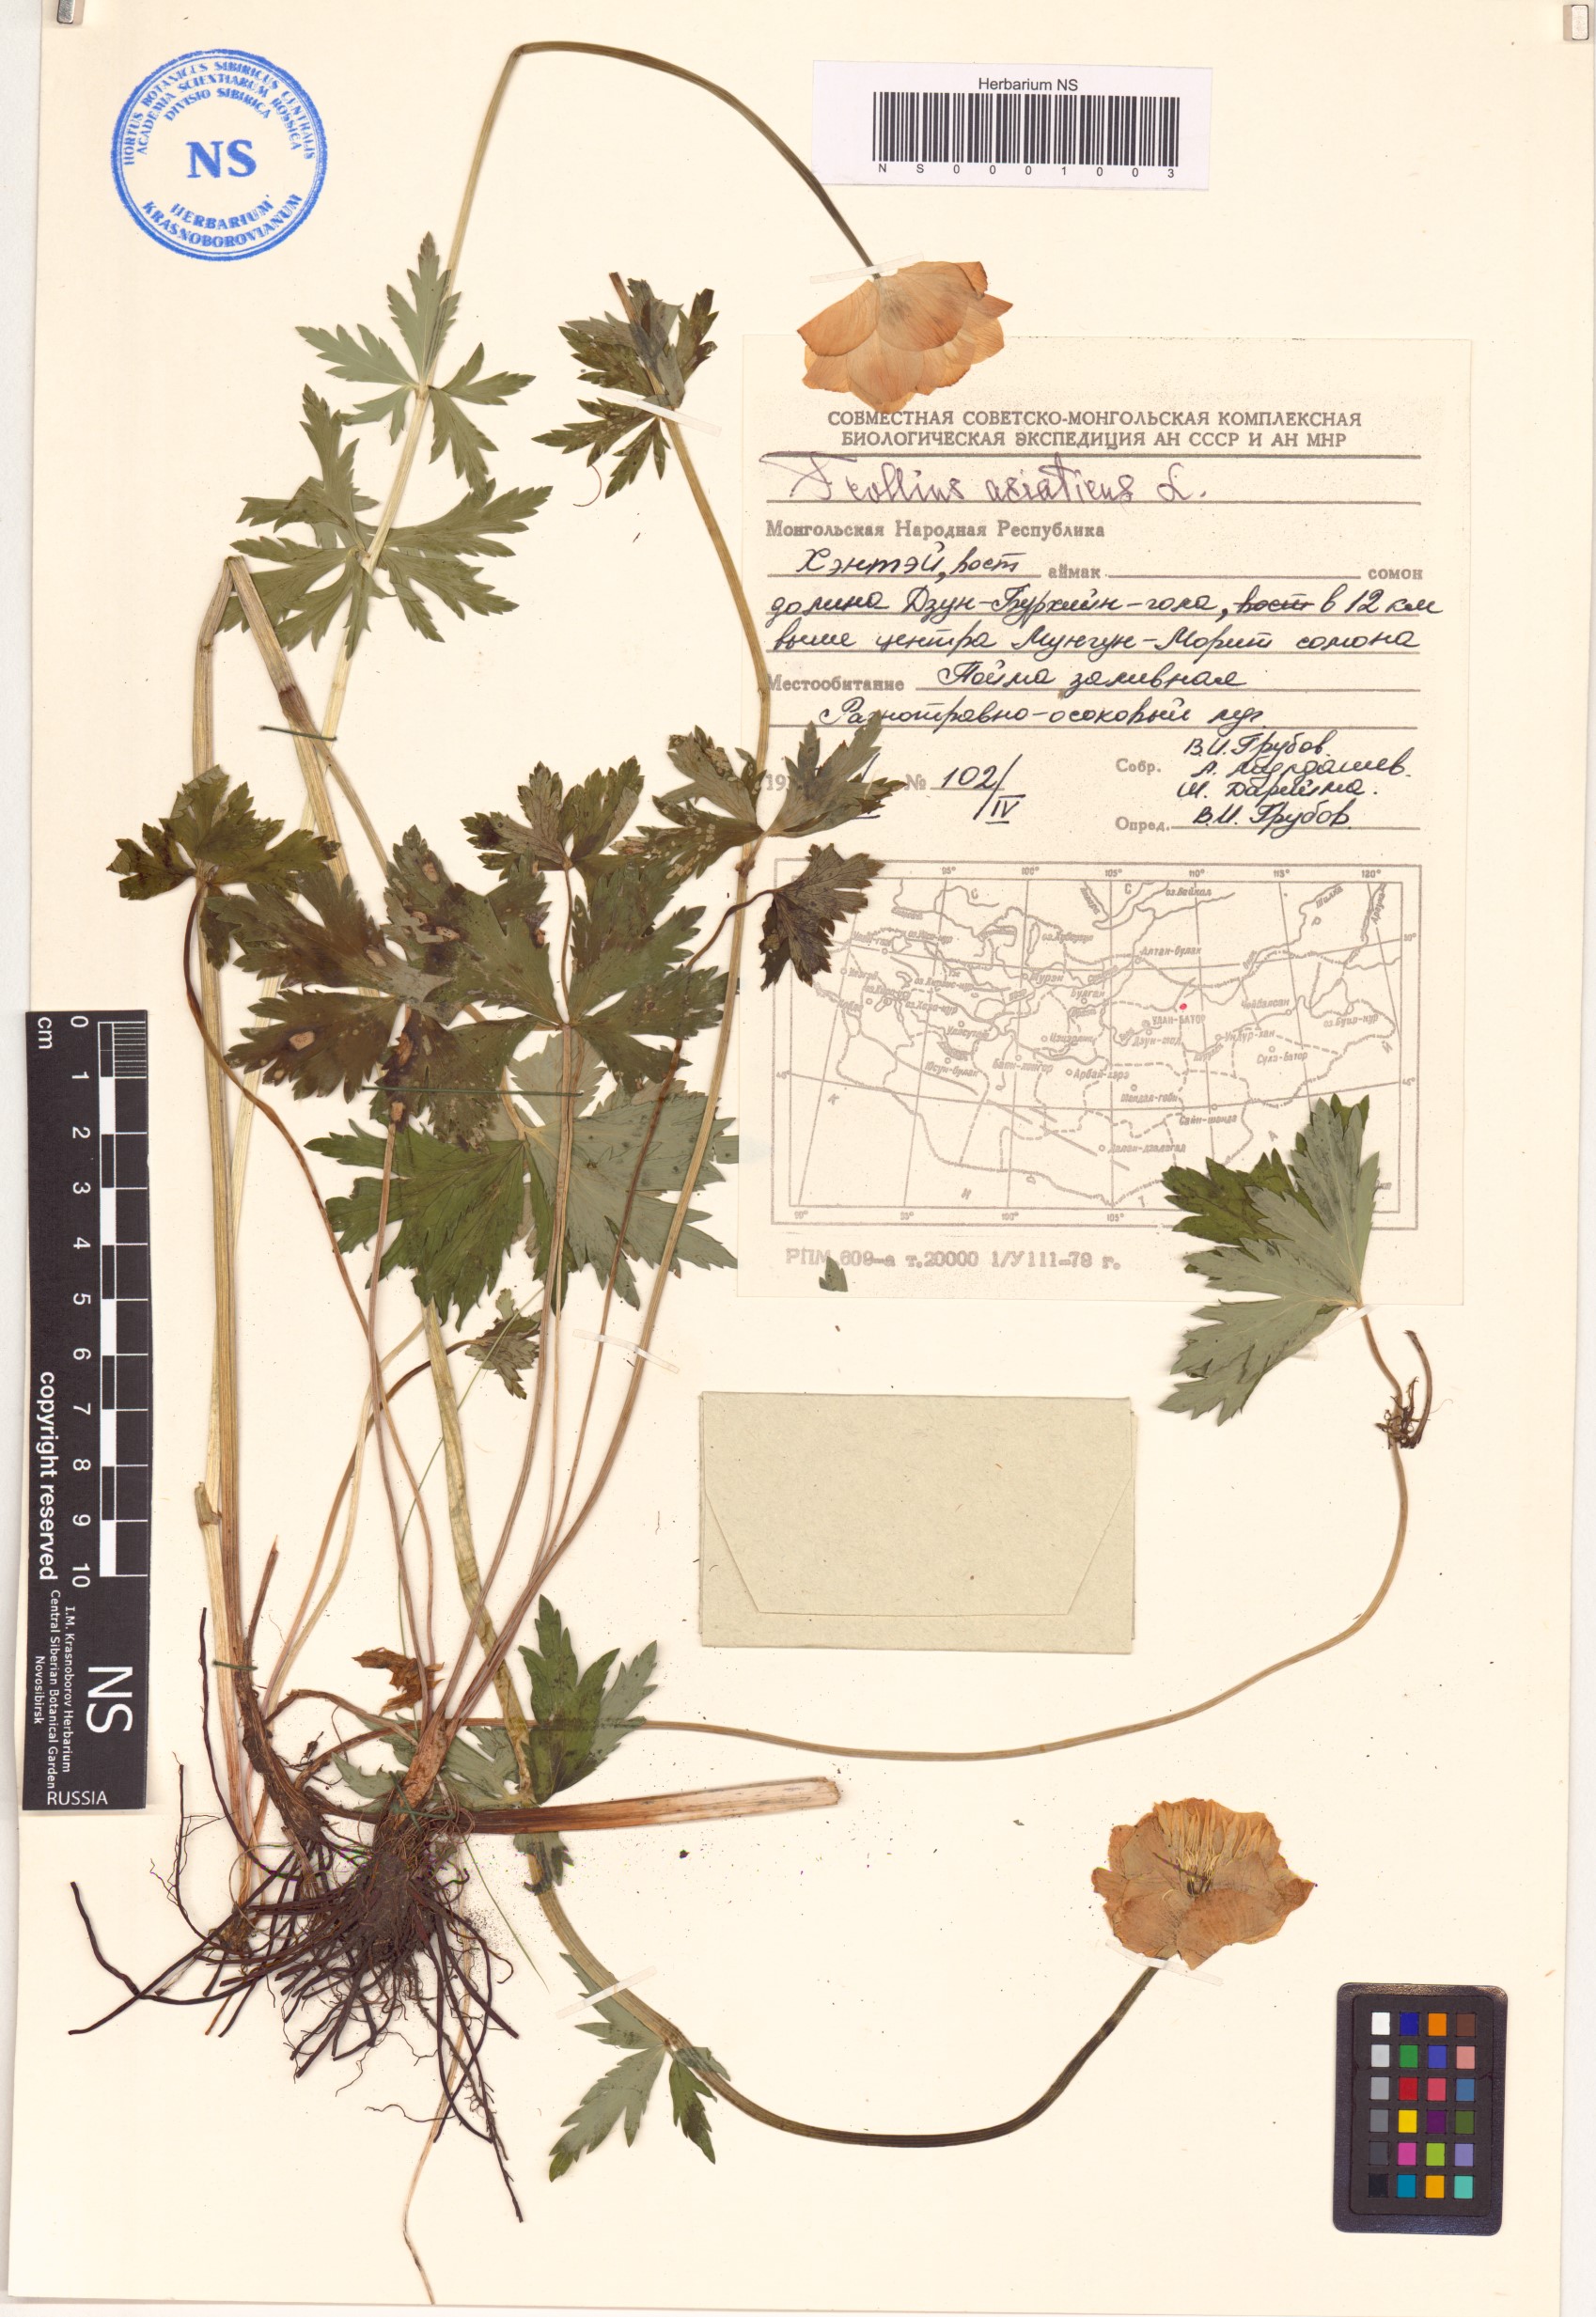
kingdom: Plantae
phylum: Tracheophyta
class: Magnoliopsida
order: Ranunculales
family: Ranunculaceae
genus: Trollius
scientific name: Trollius asiaticus
